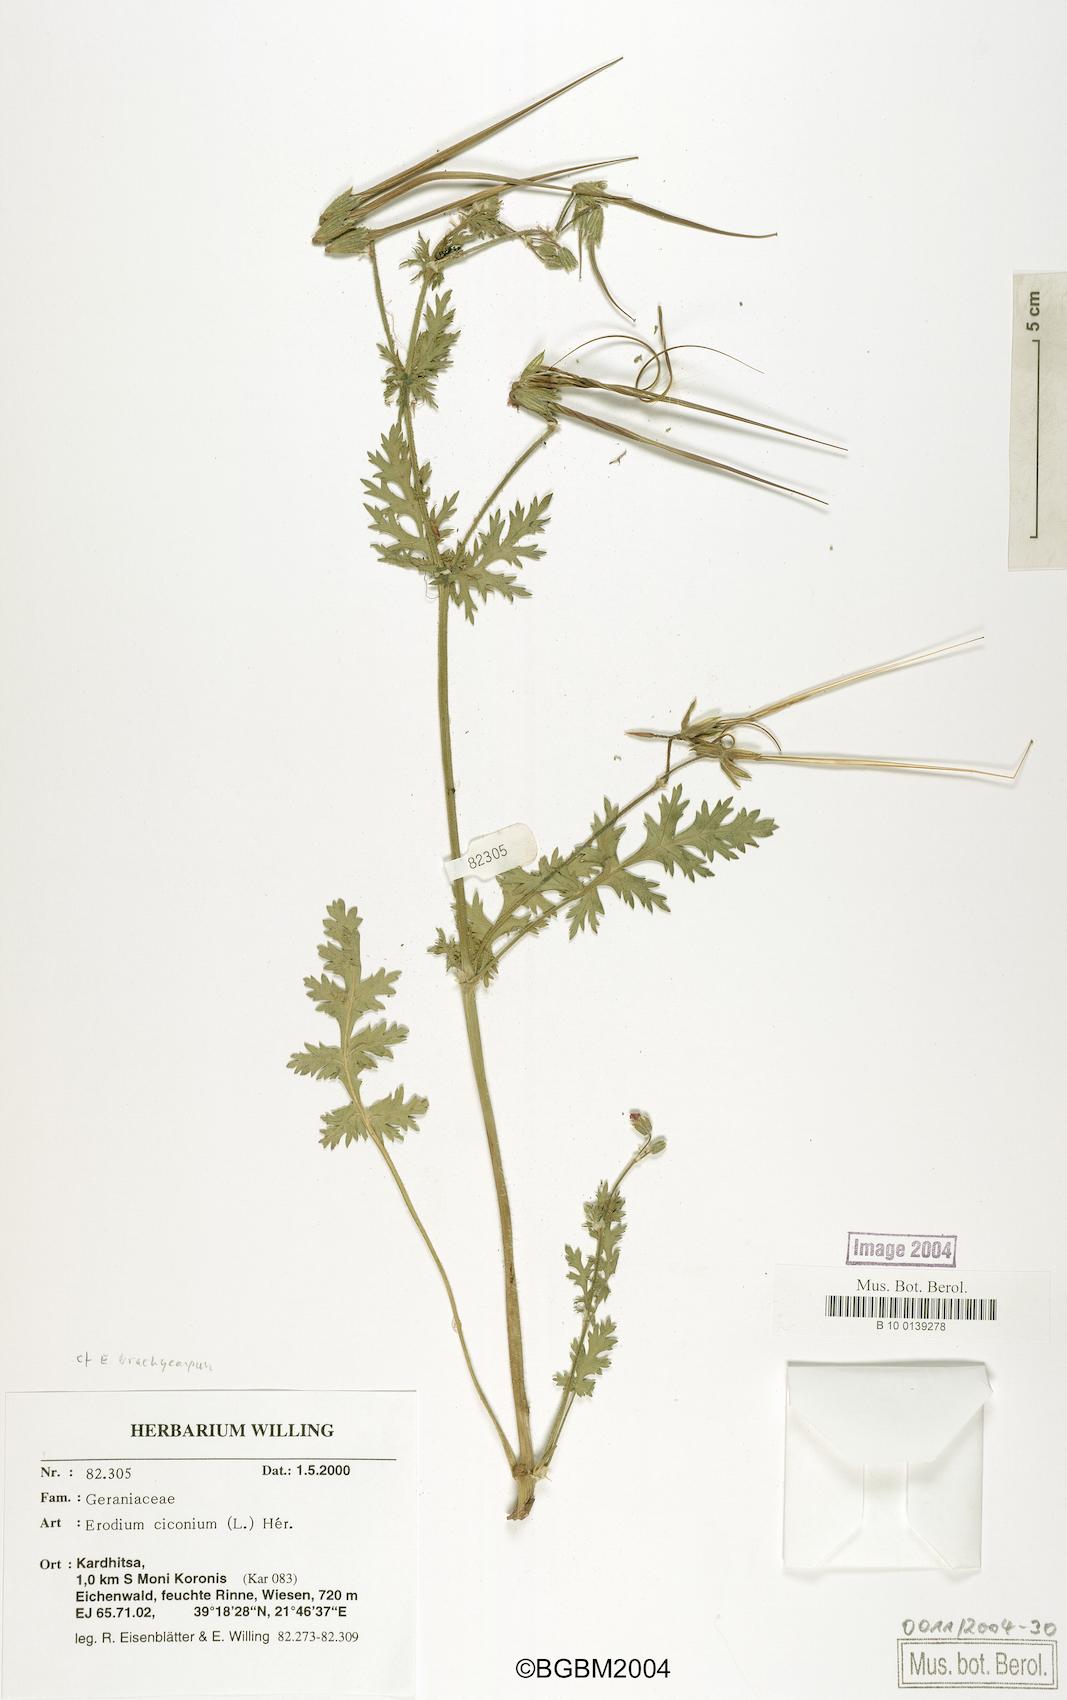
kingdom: Plantae
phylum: Tracheophyta
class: Magnoliopsida
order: Geraniales
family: Geraniaceae
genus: Erodium
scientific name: Erodium ciconium
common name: Common stork's bill
